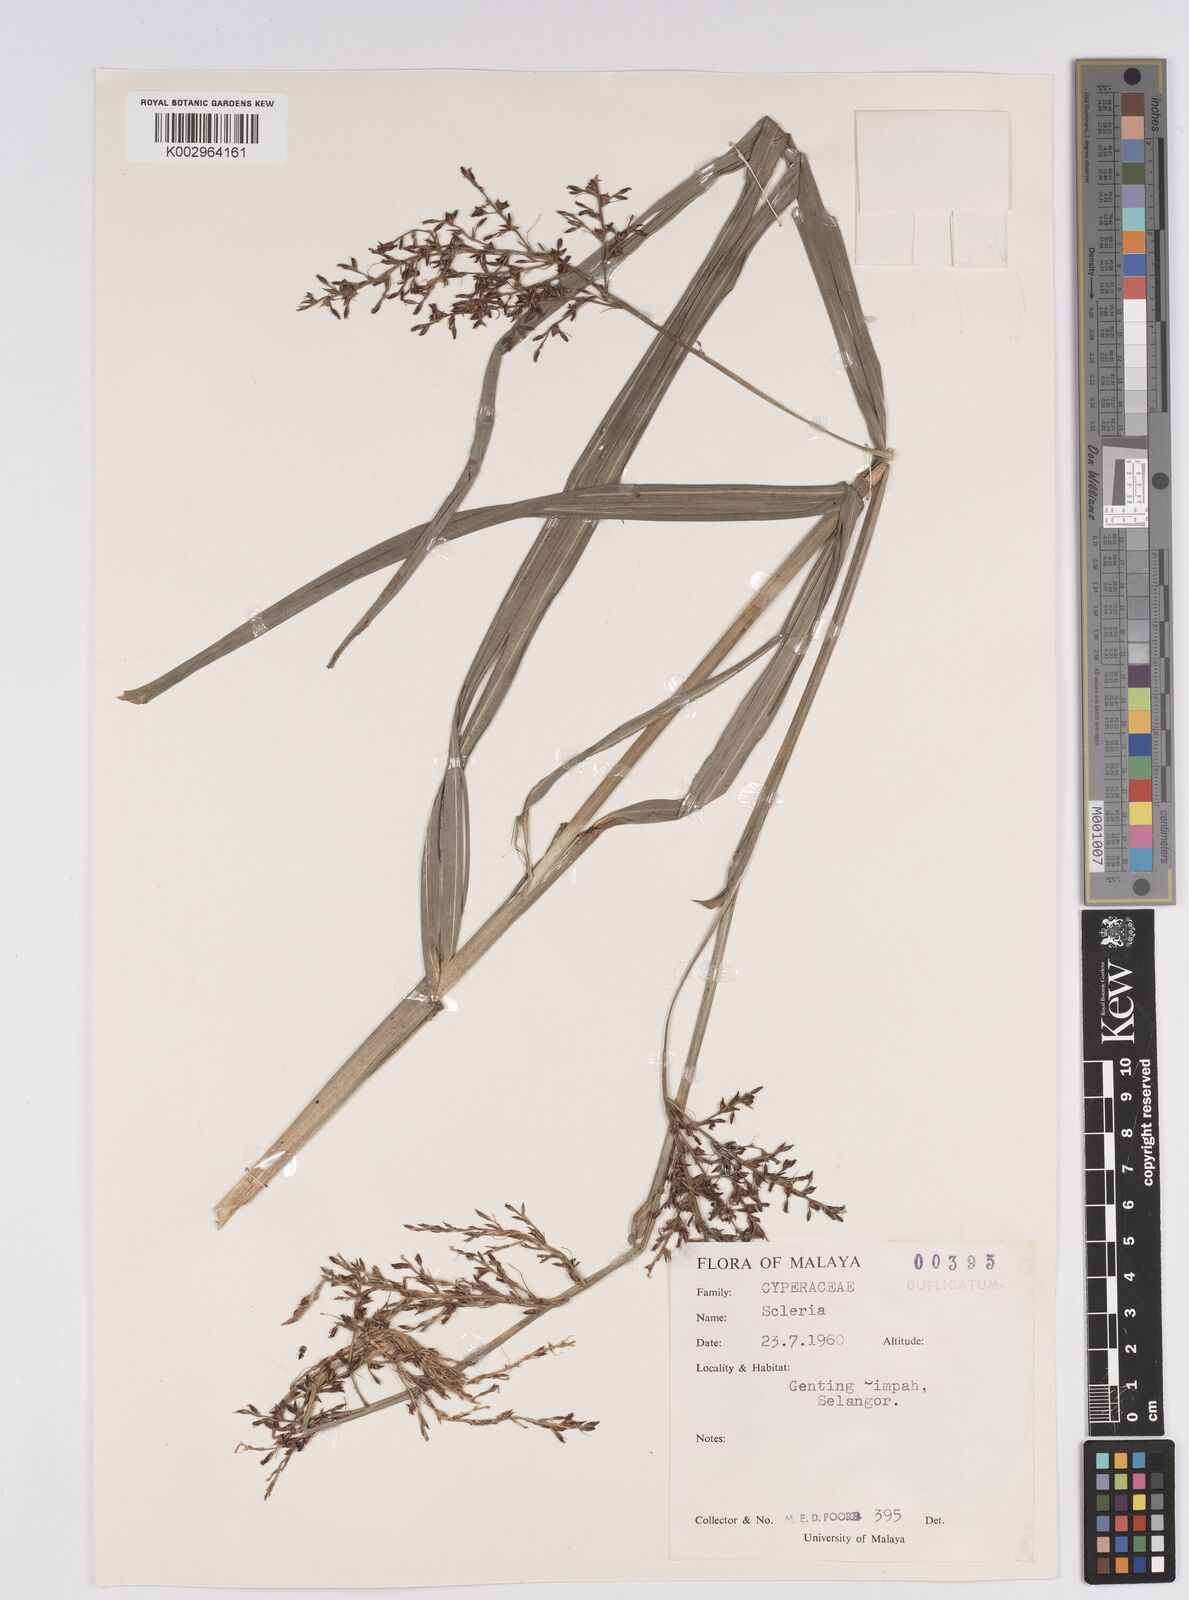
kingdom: Plantae
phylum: Tracheophyta
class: Liliopsida
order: Poales
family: Cyperaceae
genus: Scleria
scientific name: Scleria
